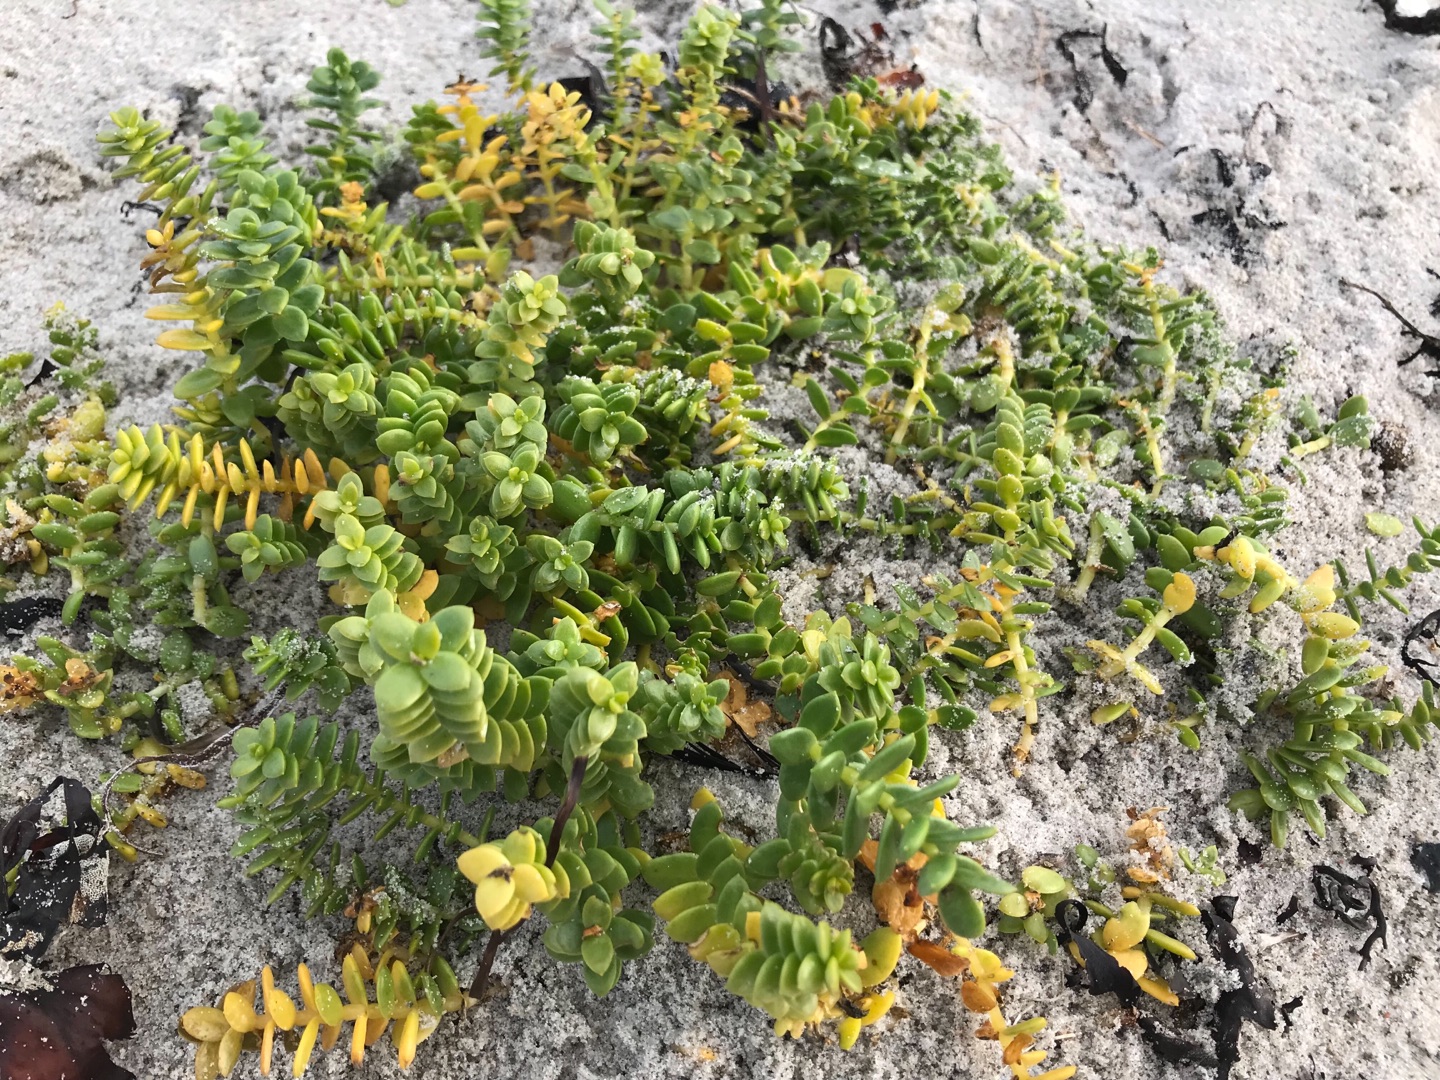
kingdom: Plantae
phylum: Tracheophyta
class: Magnoliopsida
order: Caryophyllales
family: Caryophyllaceae
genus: Honckenya
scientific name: Honckenya peploides
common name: Strandarve
